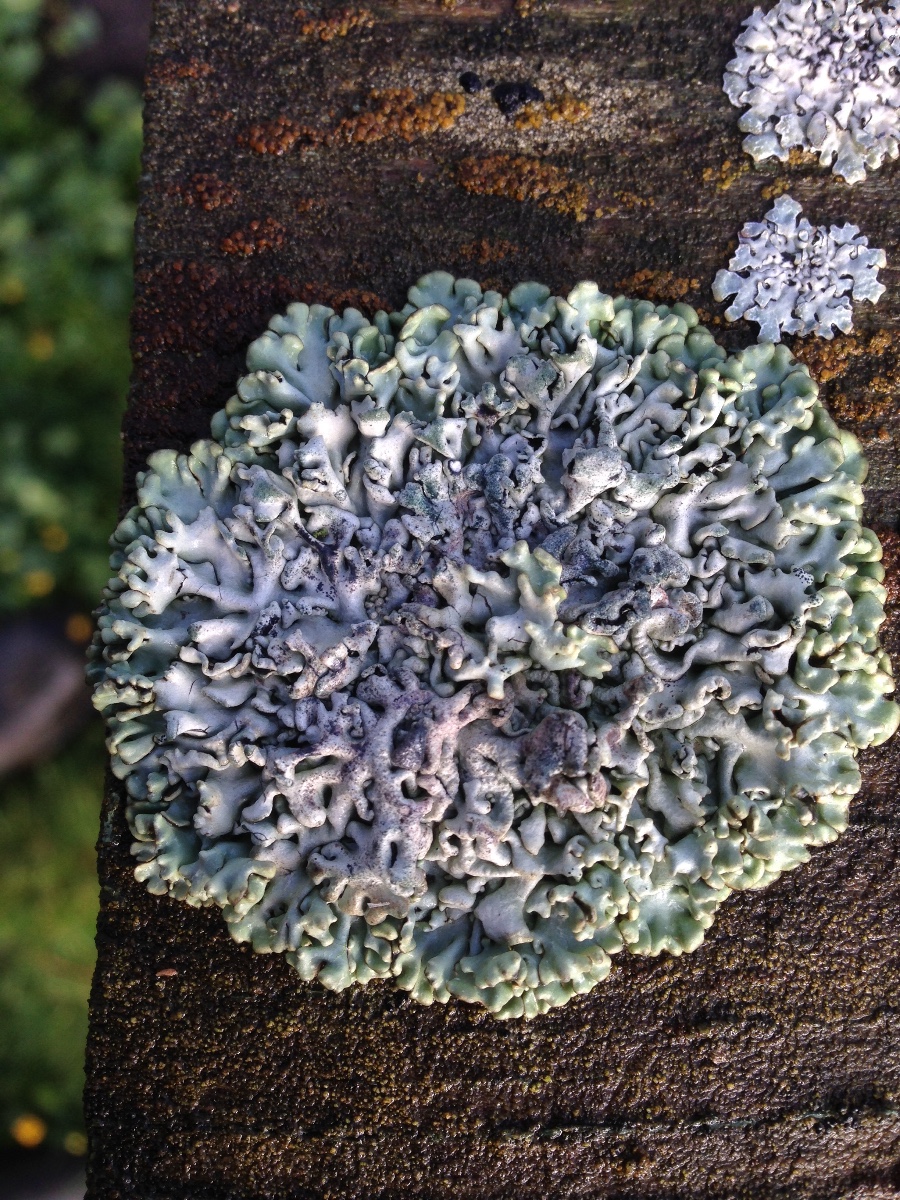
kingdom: Fungi
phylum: Ascomycota
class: Lecanoromycetes
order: Lecanorales
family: Parmeliaceae
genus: Hypogymnia
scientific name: Hypogymnia
